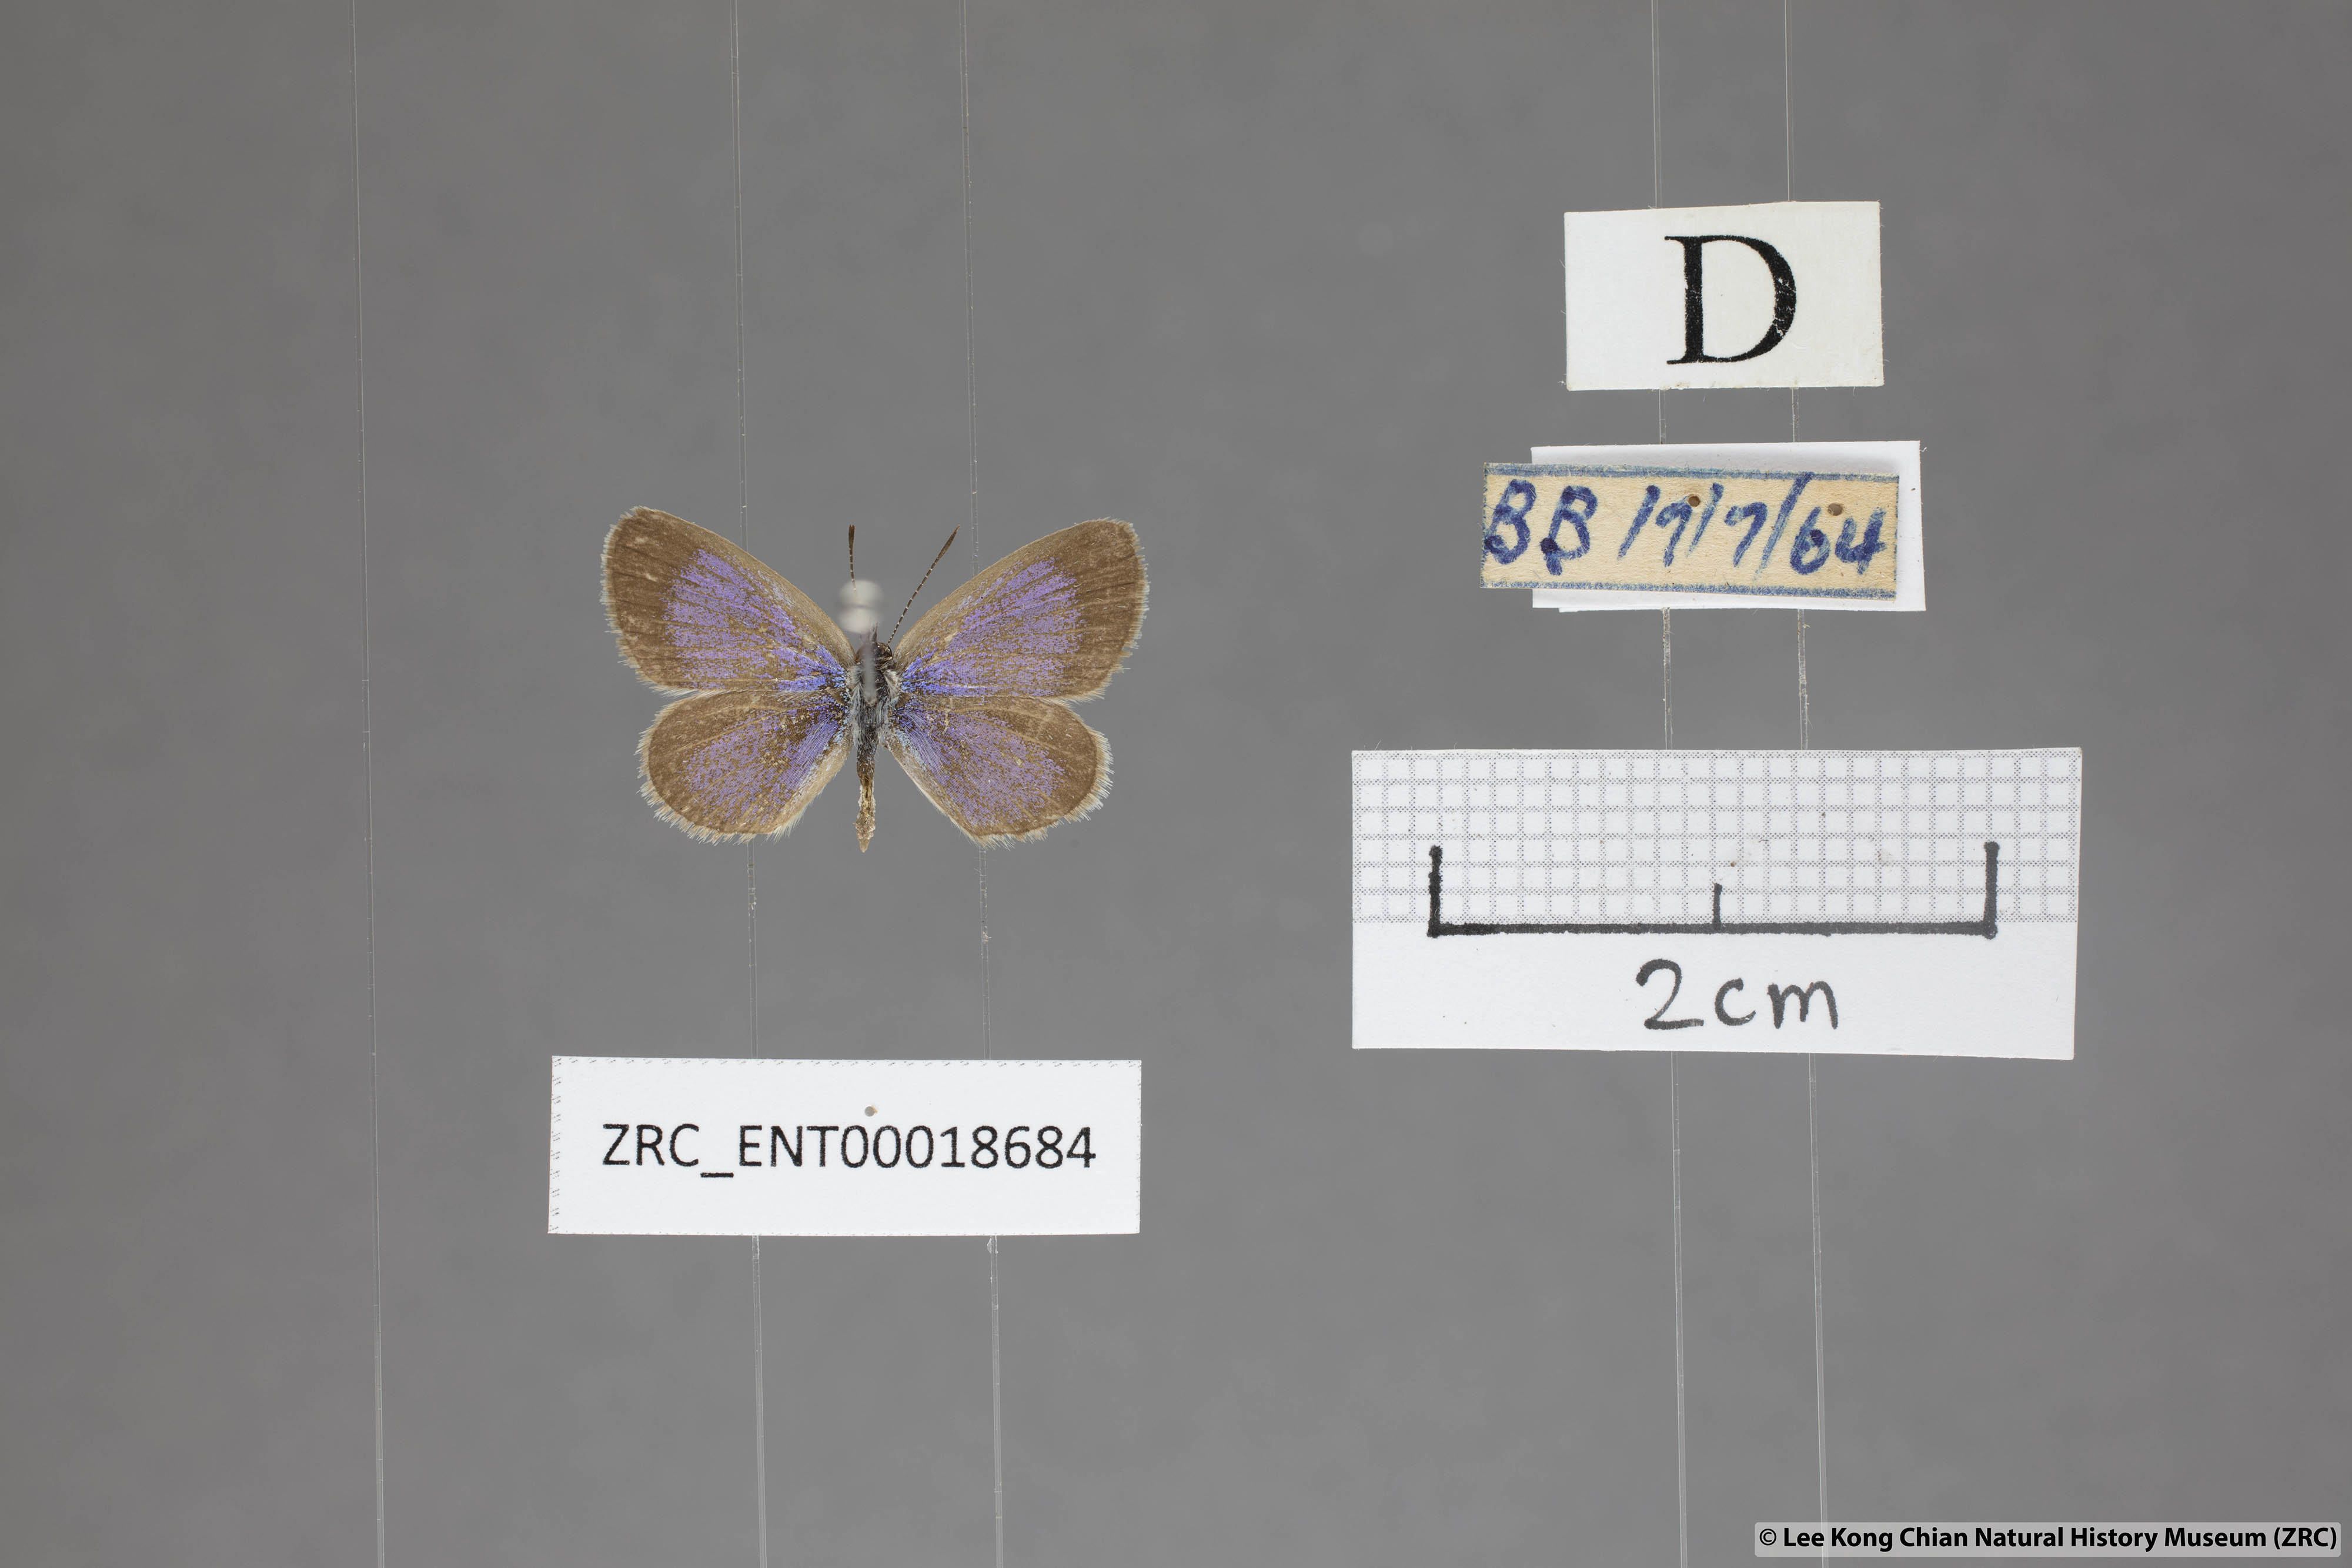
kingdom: Animalia
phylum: Arthropoda
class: Insecta
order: Lepidoptera
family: Lycaenidae
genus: Zizina
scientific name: Zizina otis
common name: Lesser grass blue
